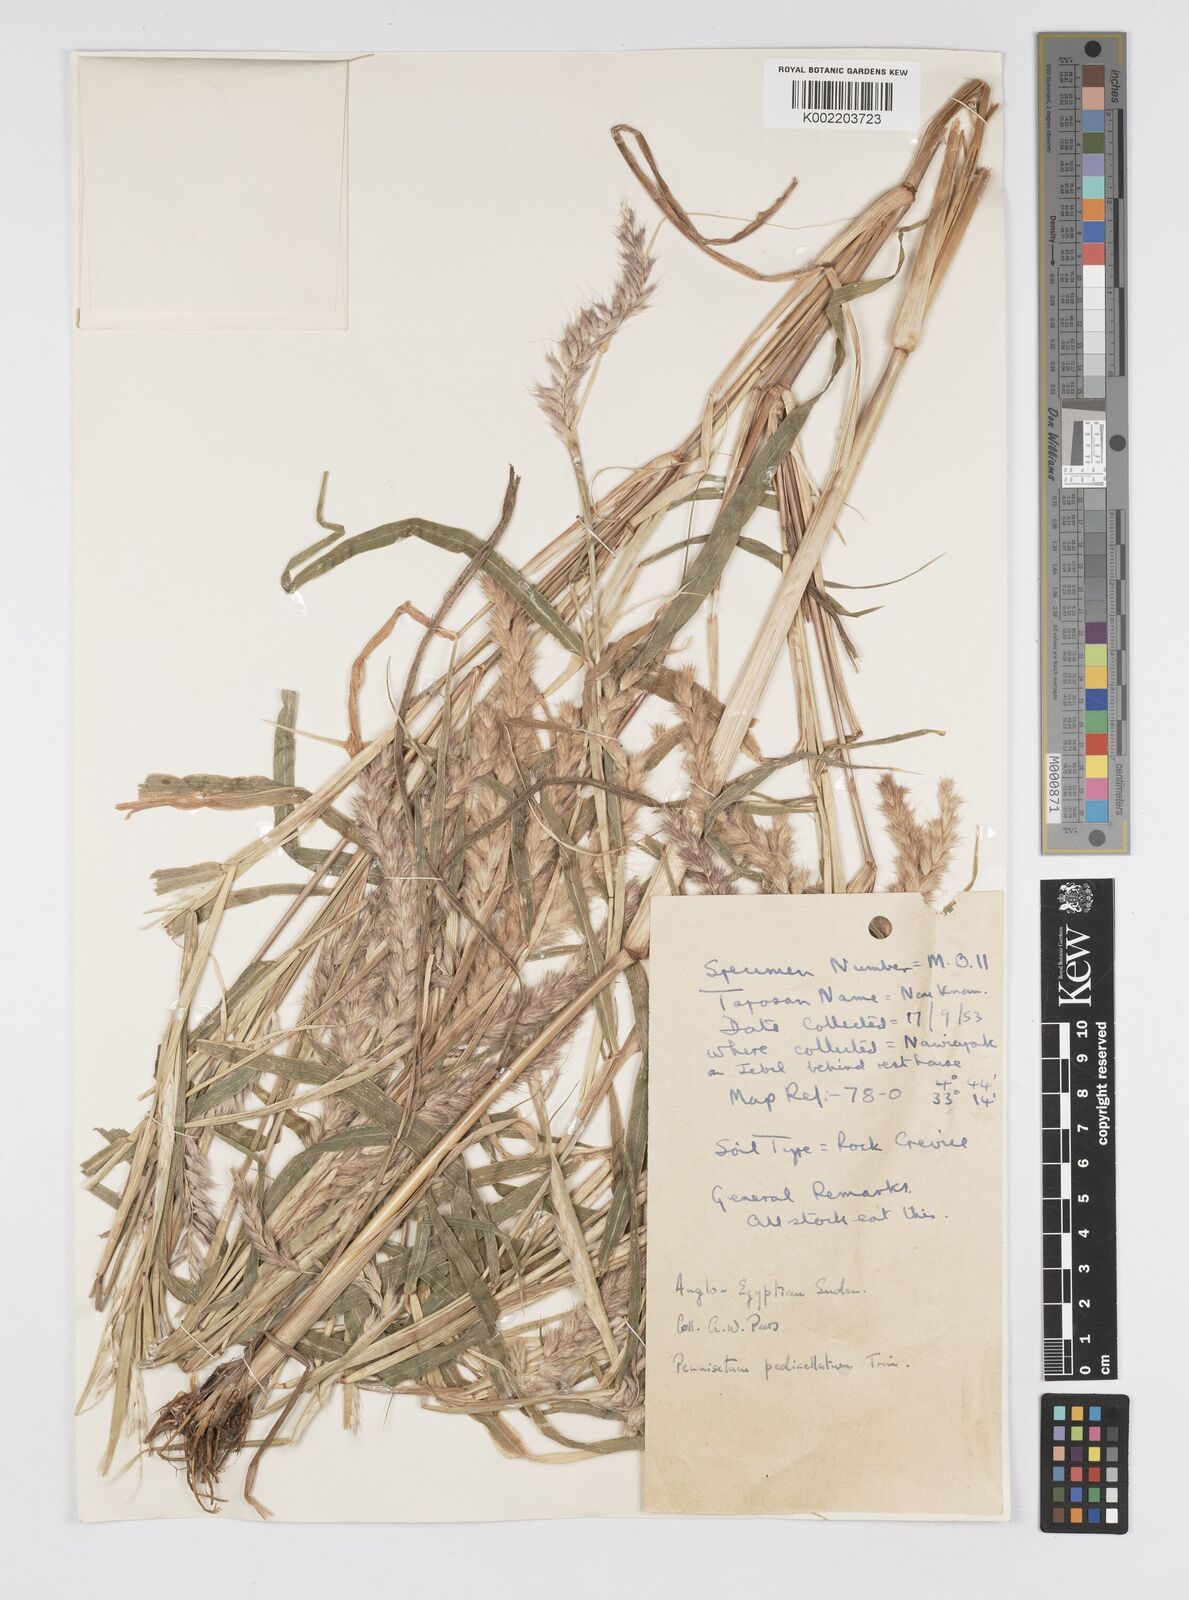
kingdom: Plantae
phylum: Tracheophyta
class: Liliopsida
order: Poales
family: Poaceae
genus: Cenchrus
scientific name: Cenchrus pedicellatus
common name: Hairy fountain grass
